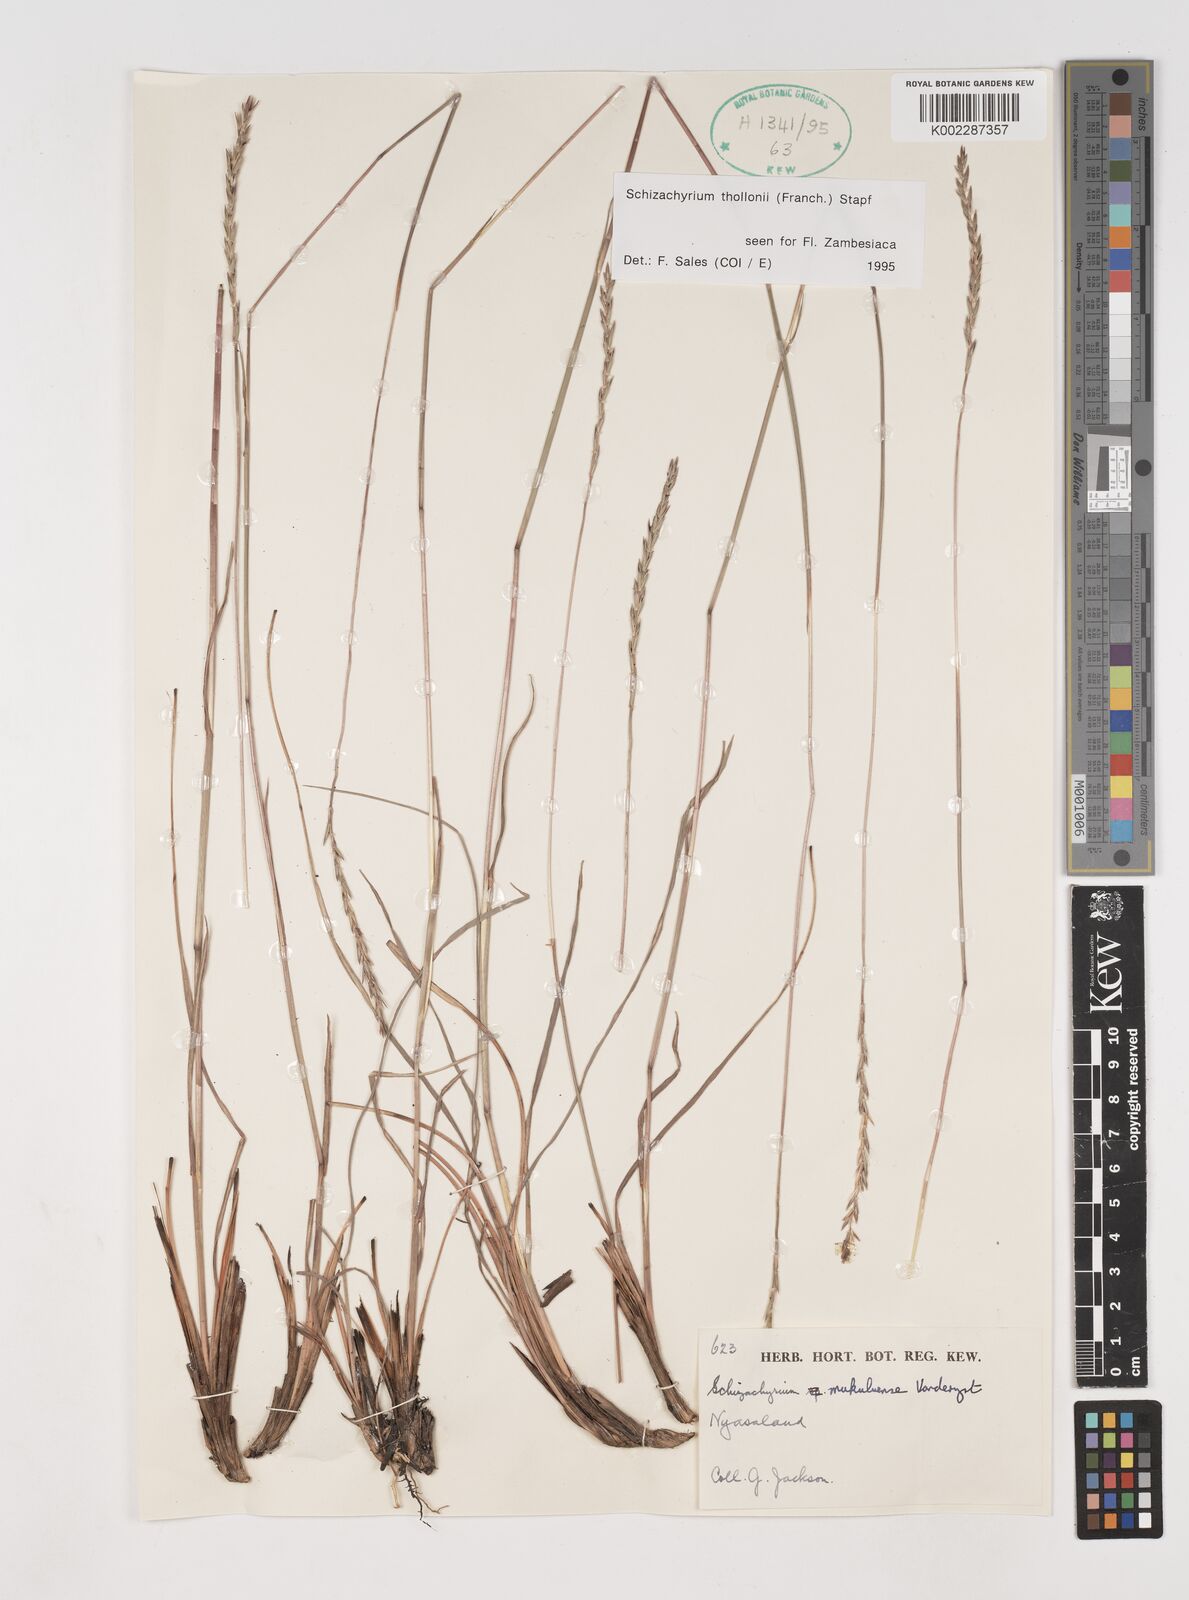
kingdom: Plantae
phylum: Tracheophyta
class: Liliopsida
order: Poales
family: Poaceae
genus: Schizachyrium
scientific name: Schizachyrium thollonii
